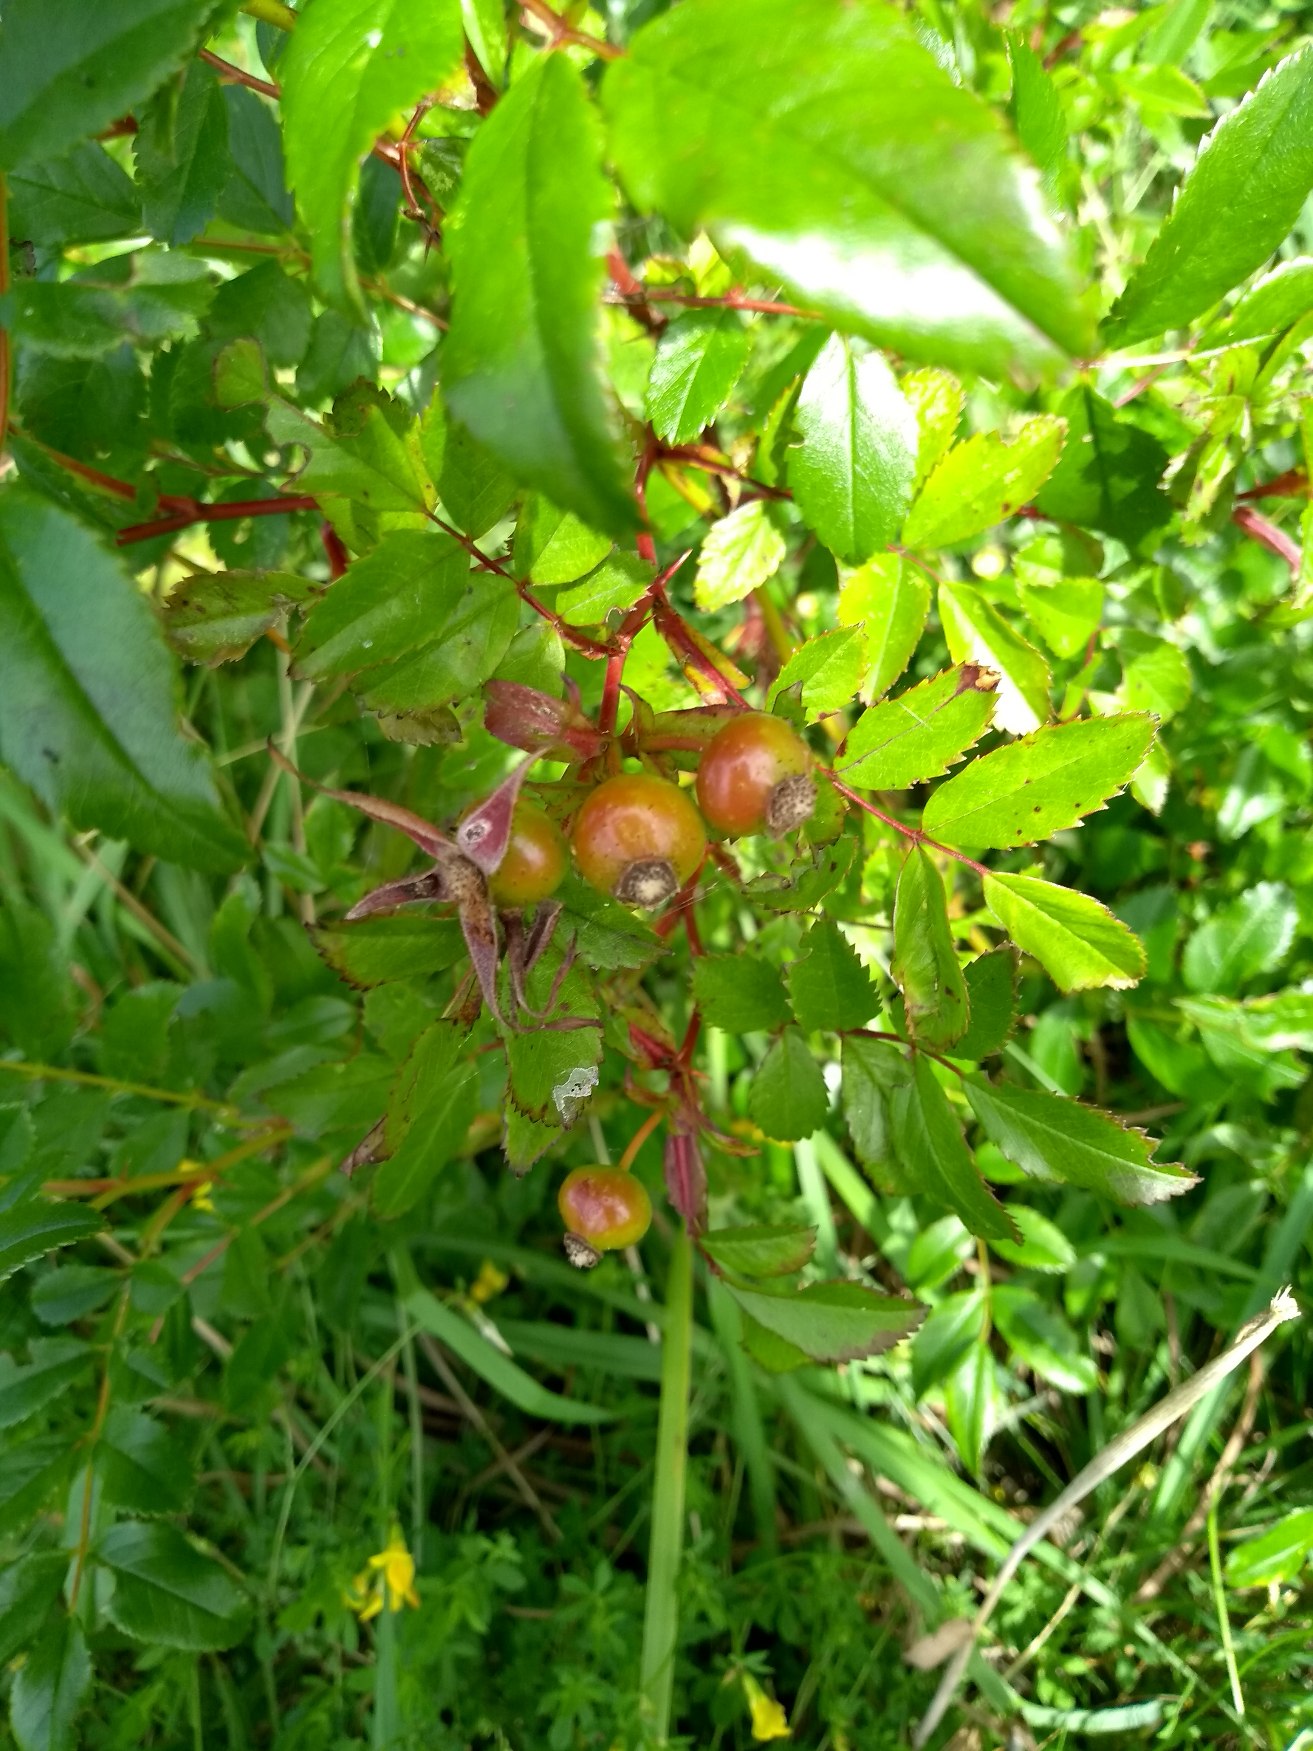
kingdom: Plantae
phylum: Tracheophyta
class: Magnoliopsida
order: Rosales
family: Rosaceae
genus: Rosa
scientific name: Rosa carolina
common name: Glansbladet rose
